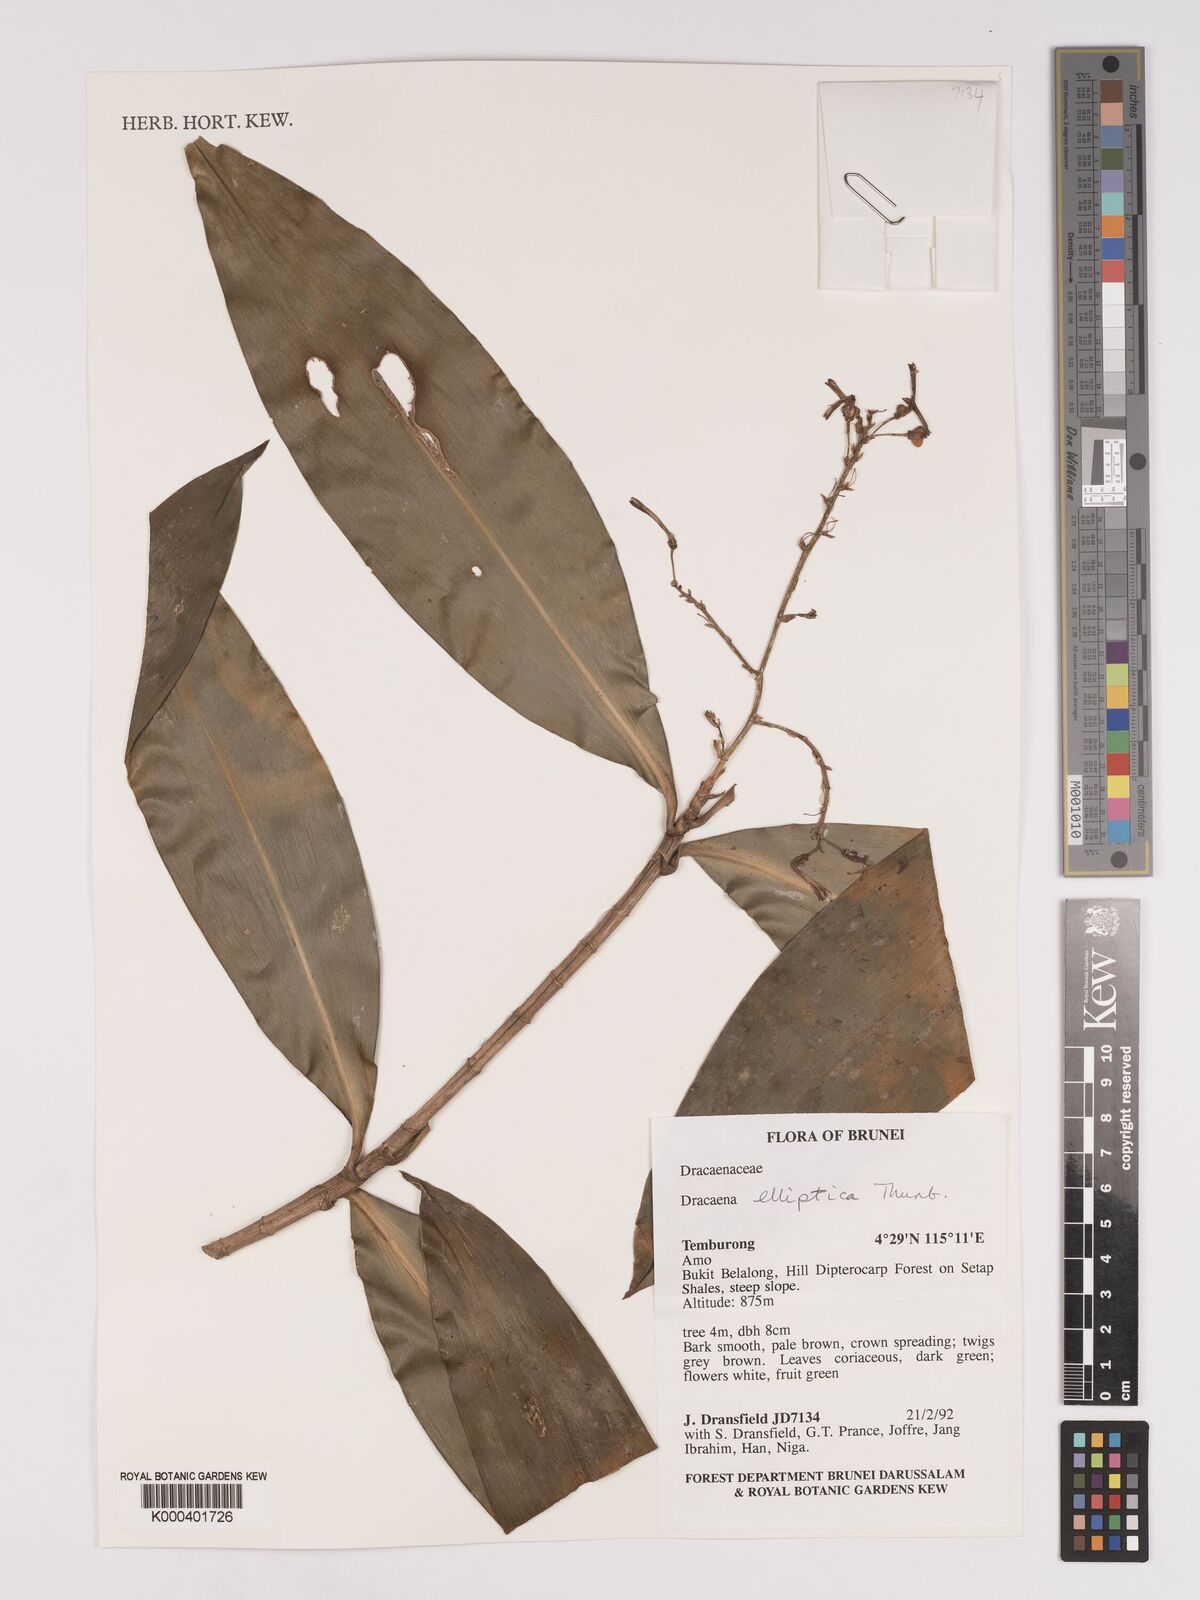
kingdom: Plantae
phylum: Tracheophyta
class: Liliopsida
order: Asparagales
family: Asparagaceae
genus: Dracaena
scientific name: Dracaena elliptica
